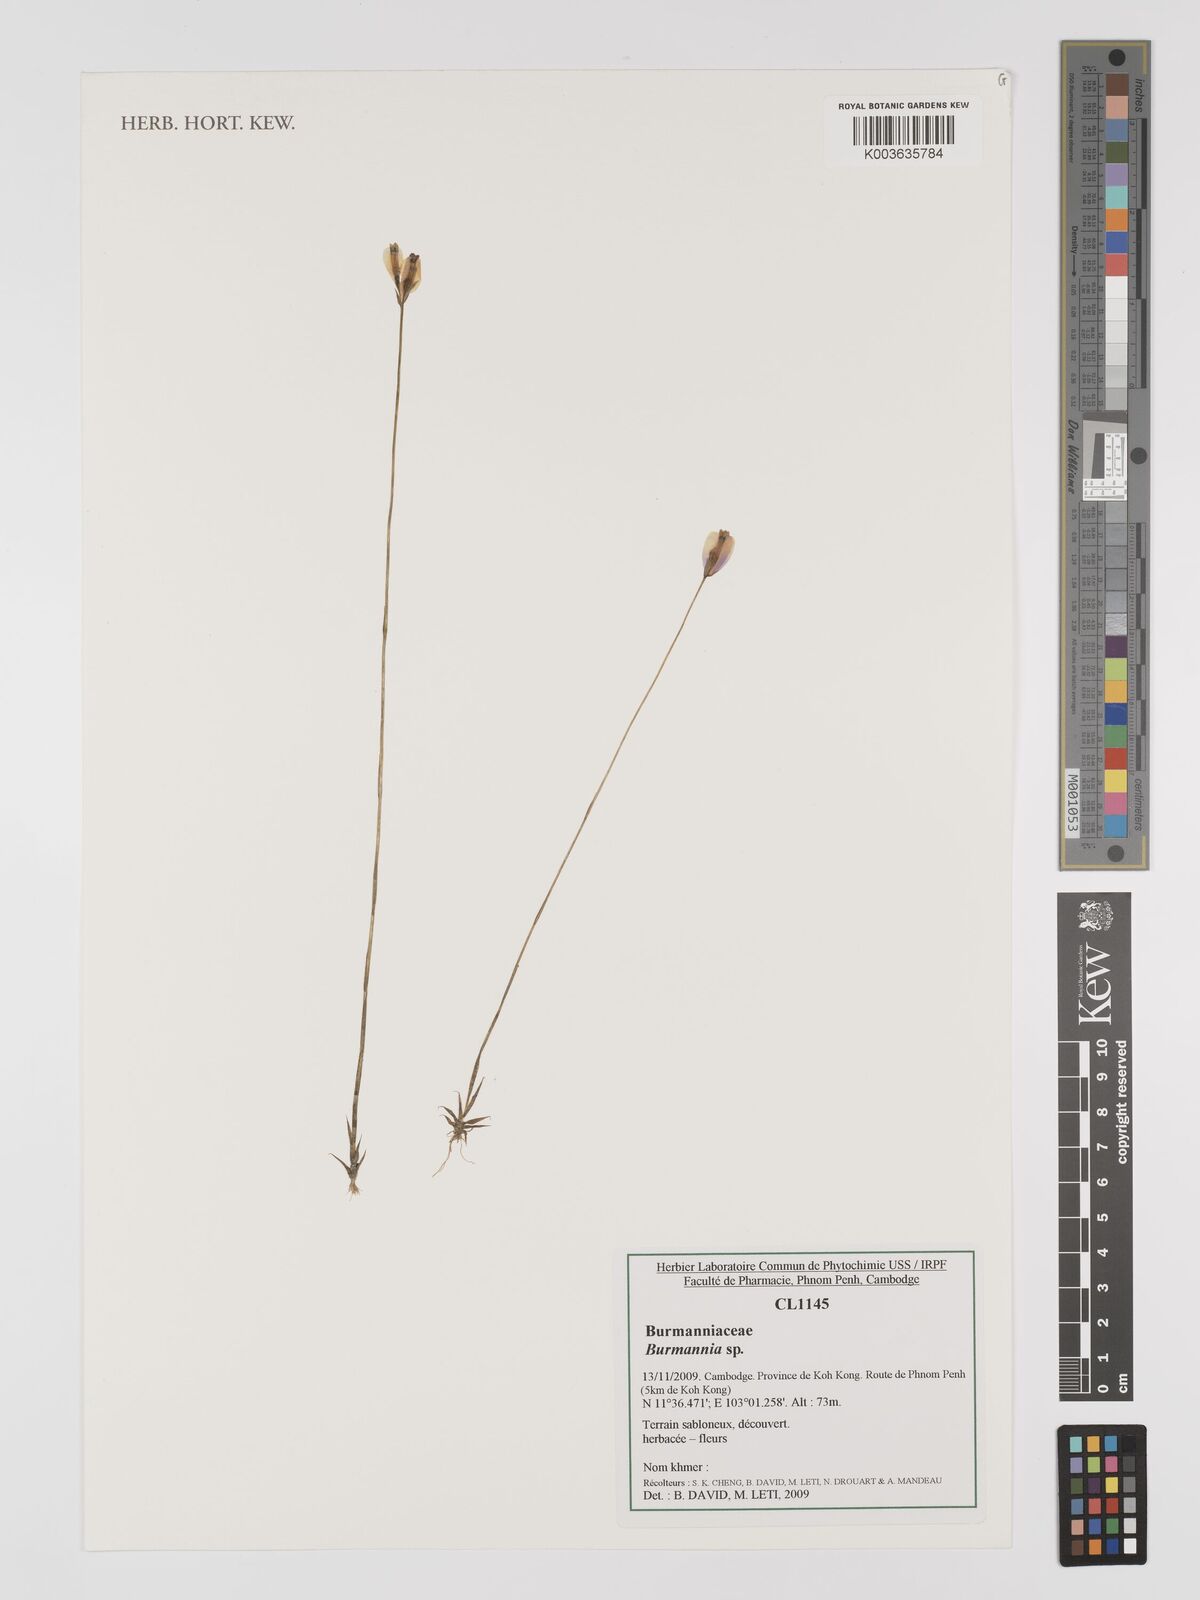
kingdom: Plantae
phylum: Tracheophyta
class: Liliopsida
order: Dioscoreales
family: Burmanniaceae
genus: Burmannia
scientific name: Burmannia
